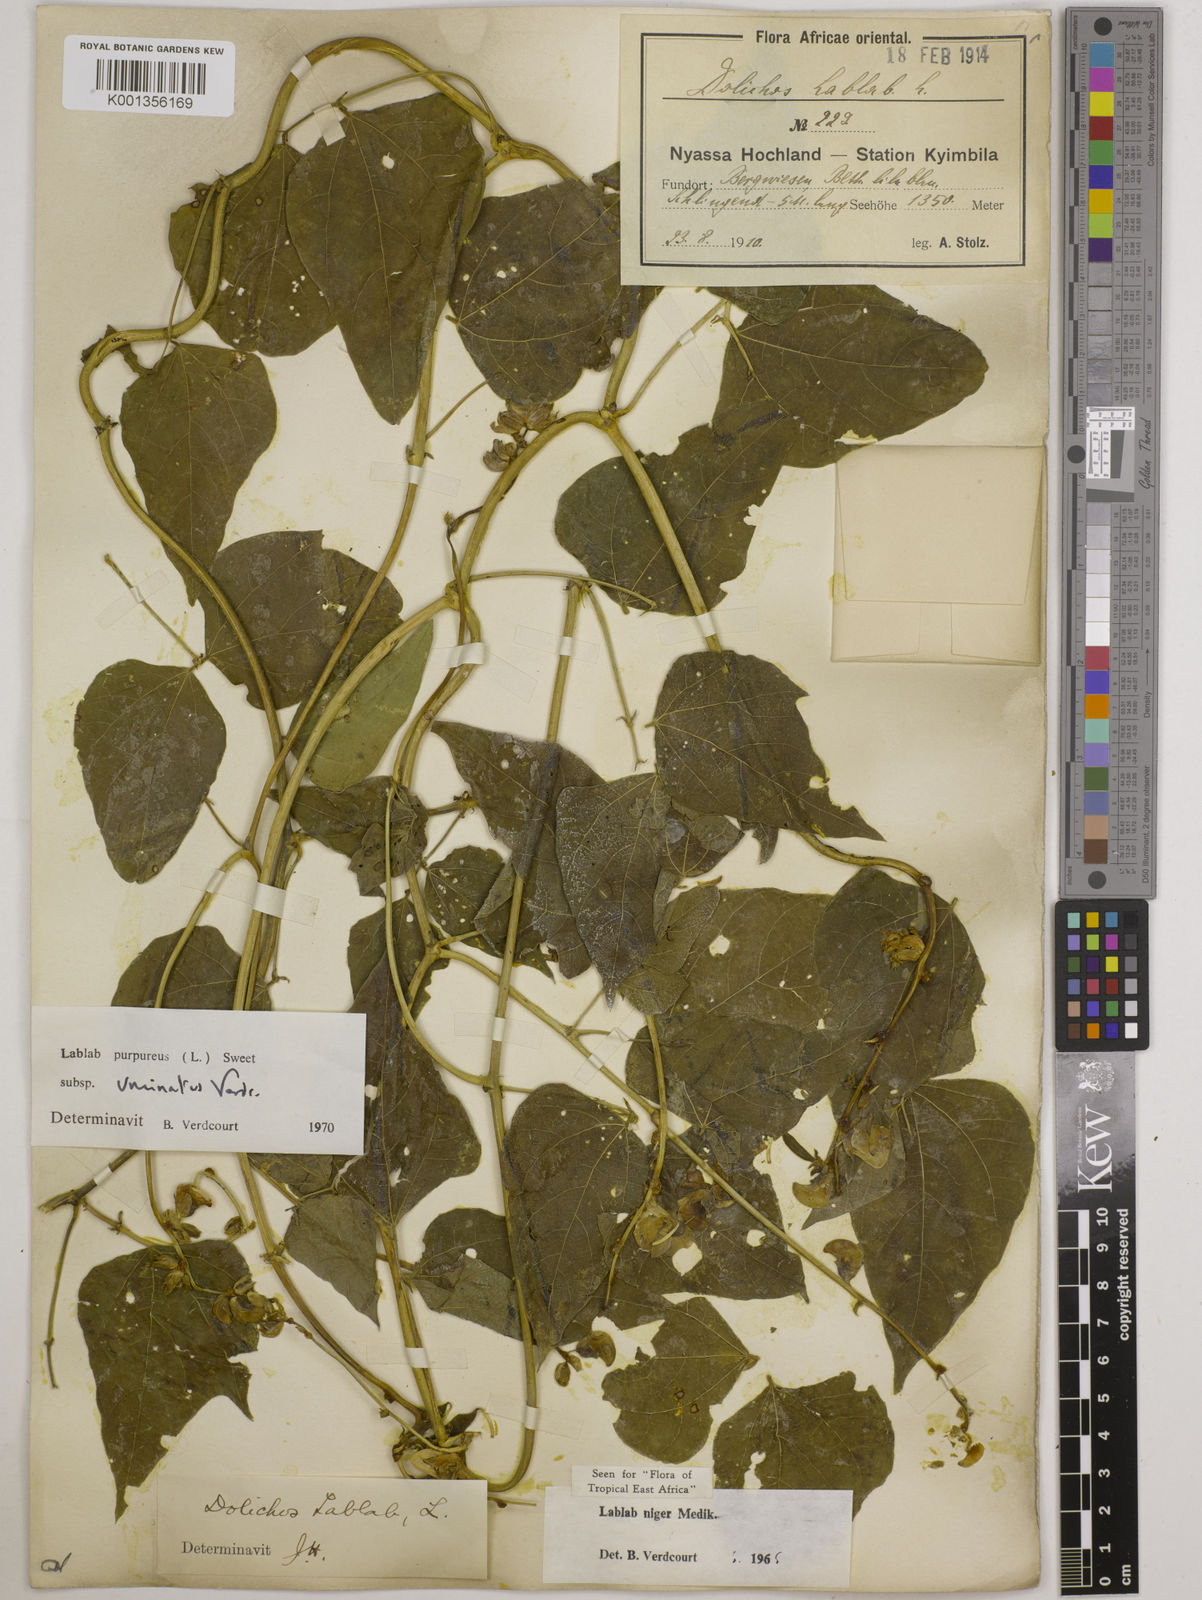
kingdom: Plantae
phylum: Tracheophyta
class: Magnoliopsida
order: Fabales
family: Fabaceae
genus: Lablab
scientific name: Lablab purpureus
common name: Lablab-bean
